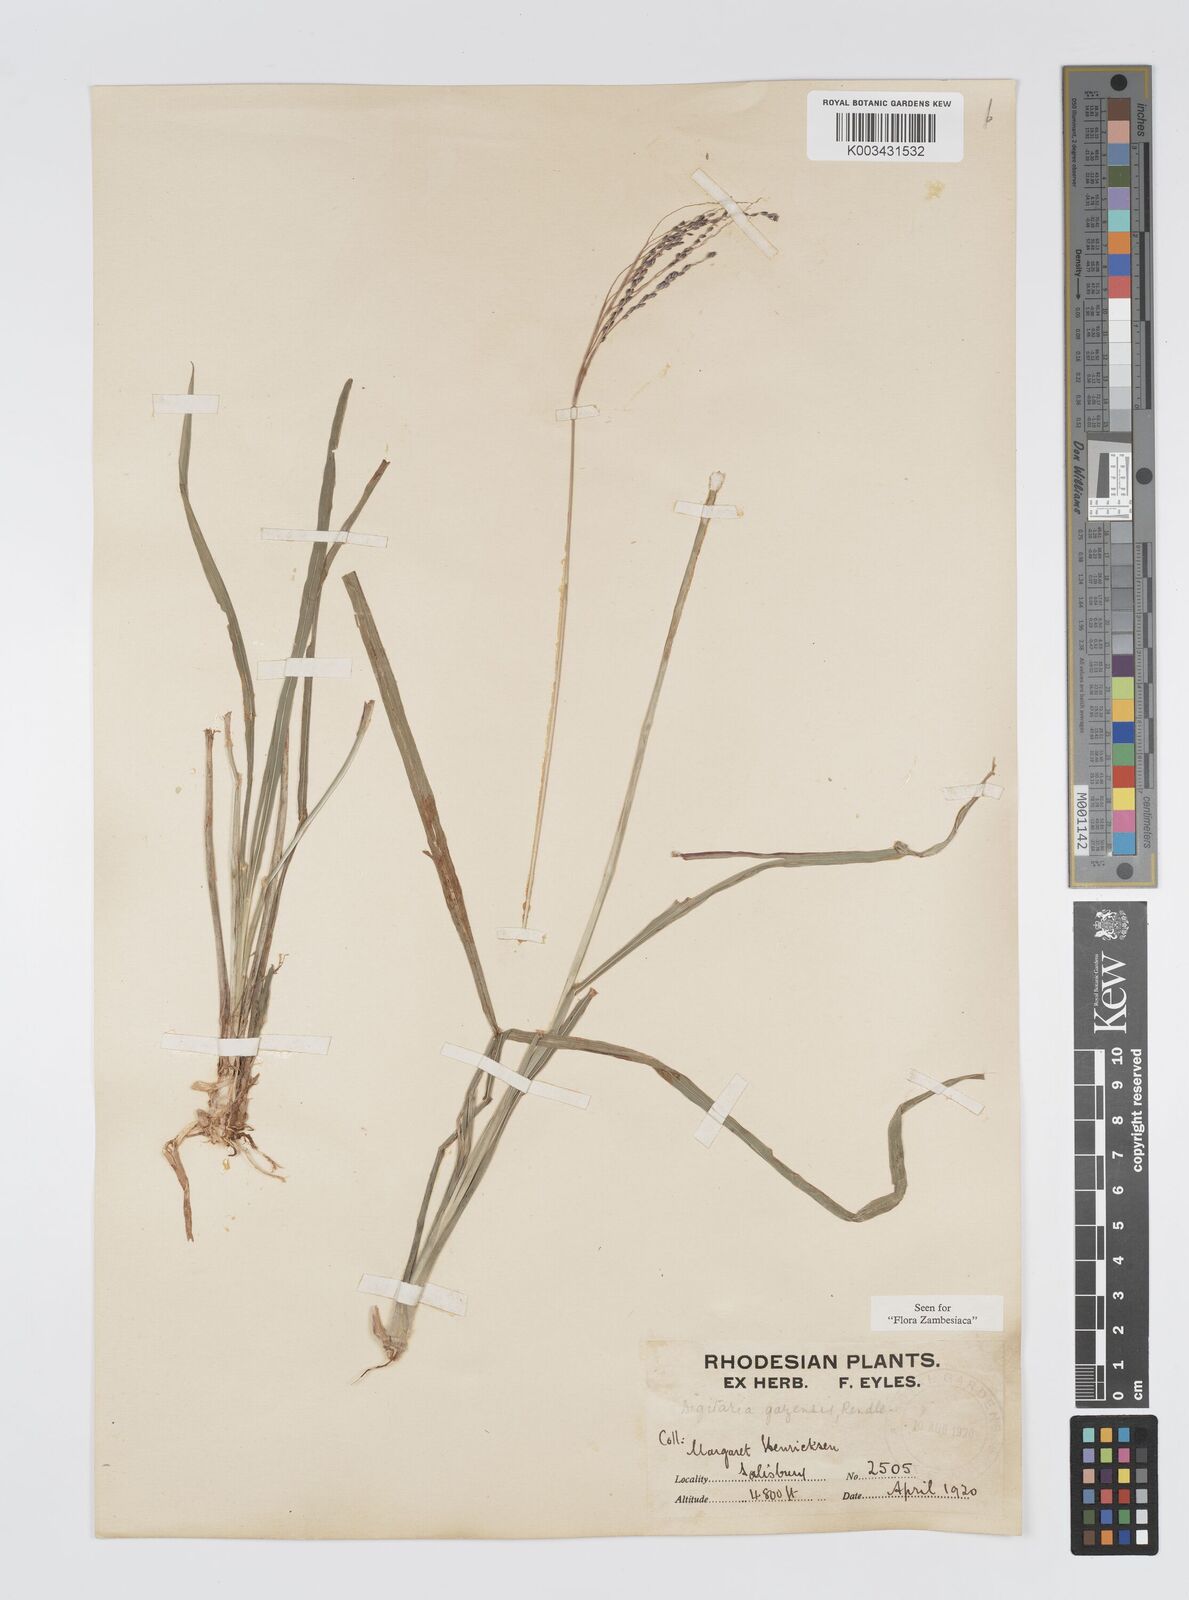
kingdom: Plantae
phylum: Tracheophyta
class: Liliopsida
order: Poales
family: Poaceae
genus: Digitaria
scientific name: Digitaria gazensis
